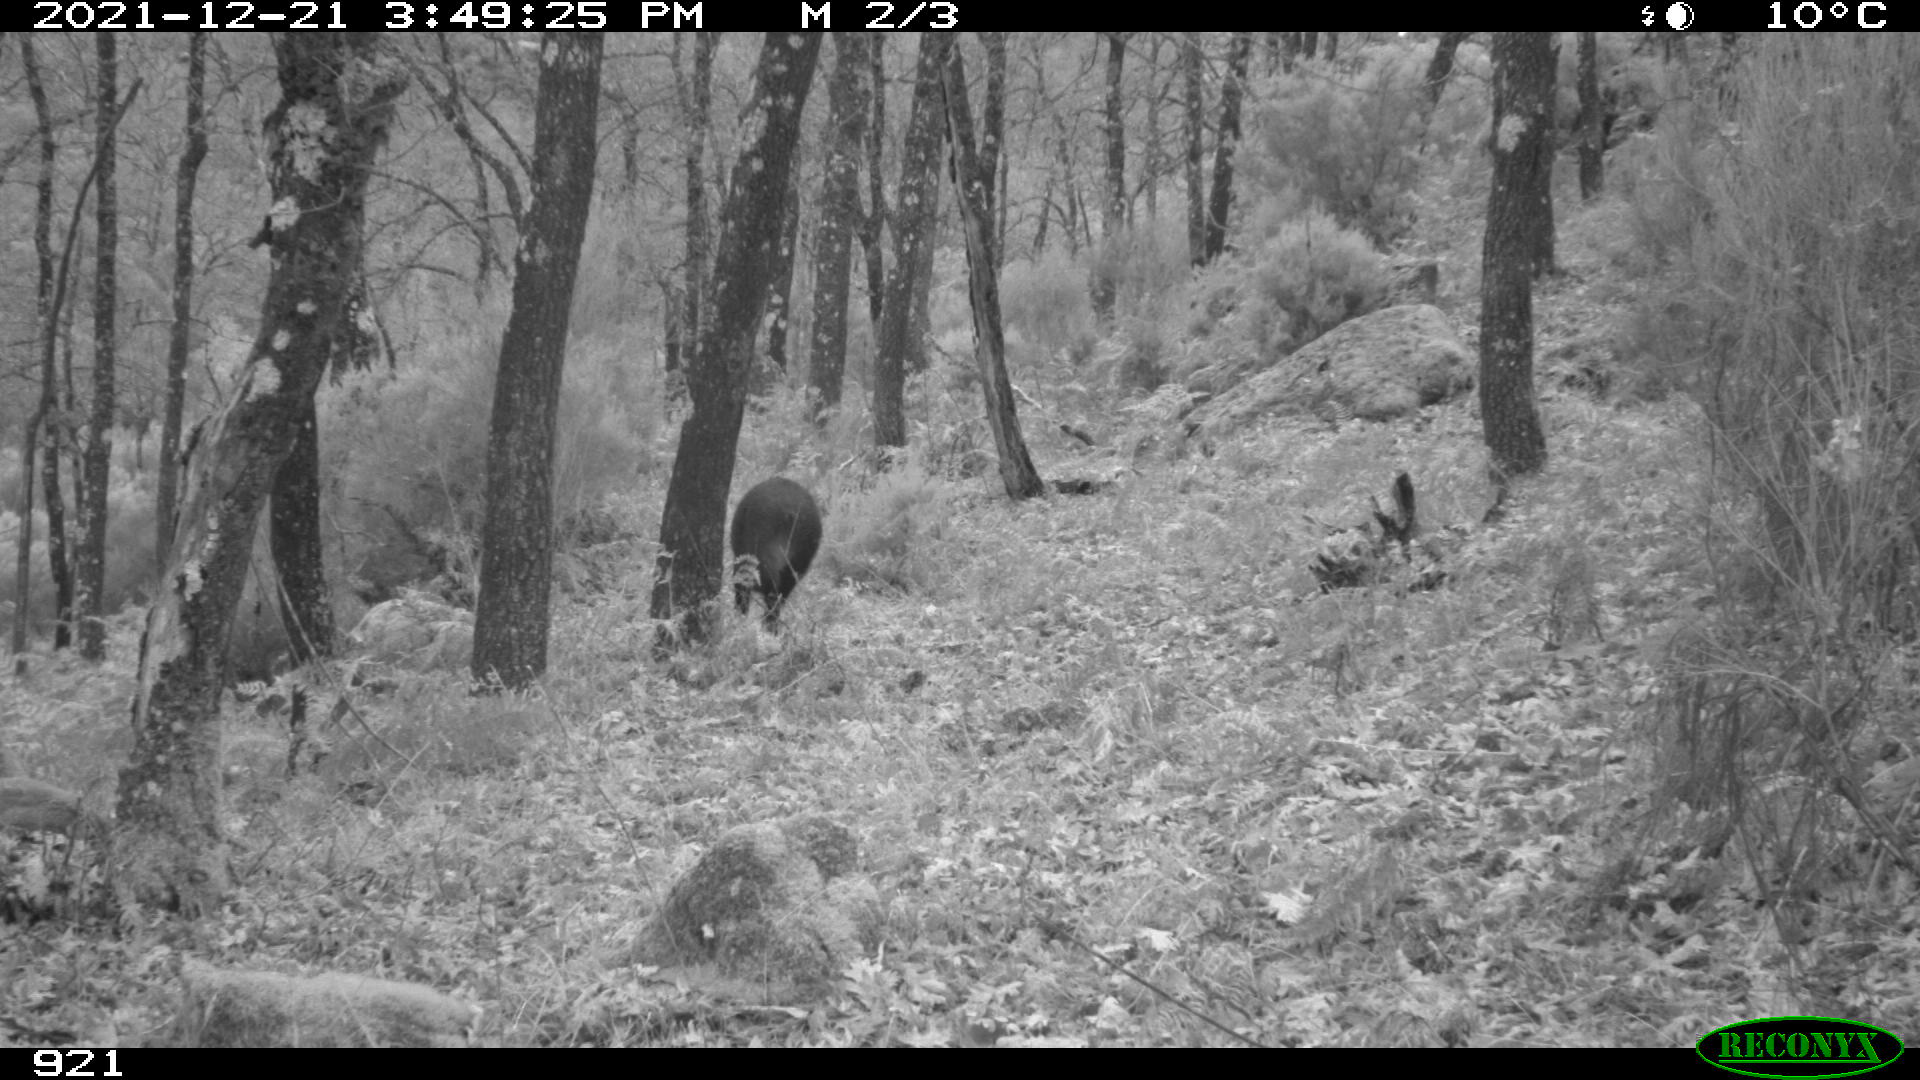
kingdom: Animalia
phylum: Chordata
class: Mammalia
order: Artiodactyla
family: Suidae
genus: Sus
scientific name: Sus scrofa
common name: Wild boar
